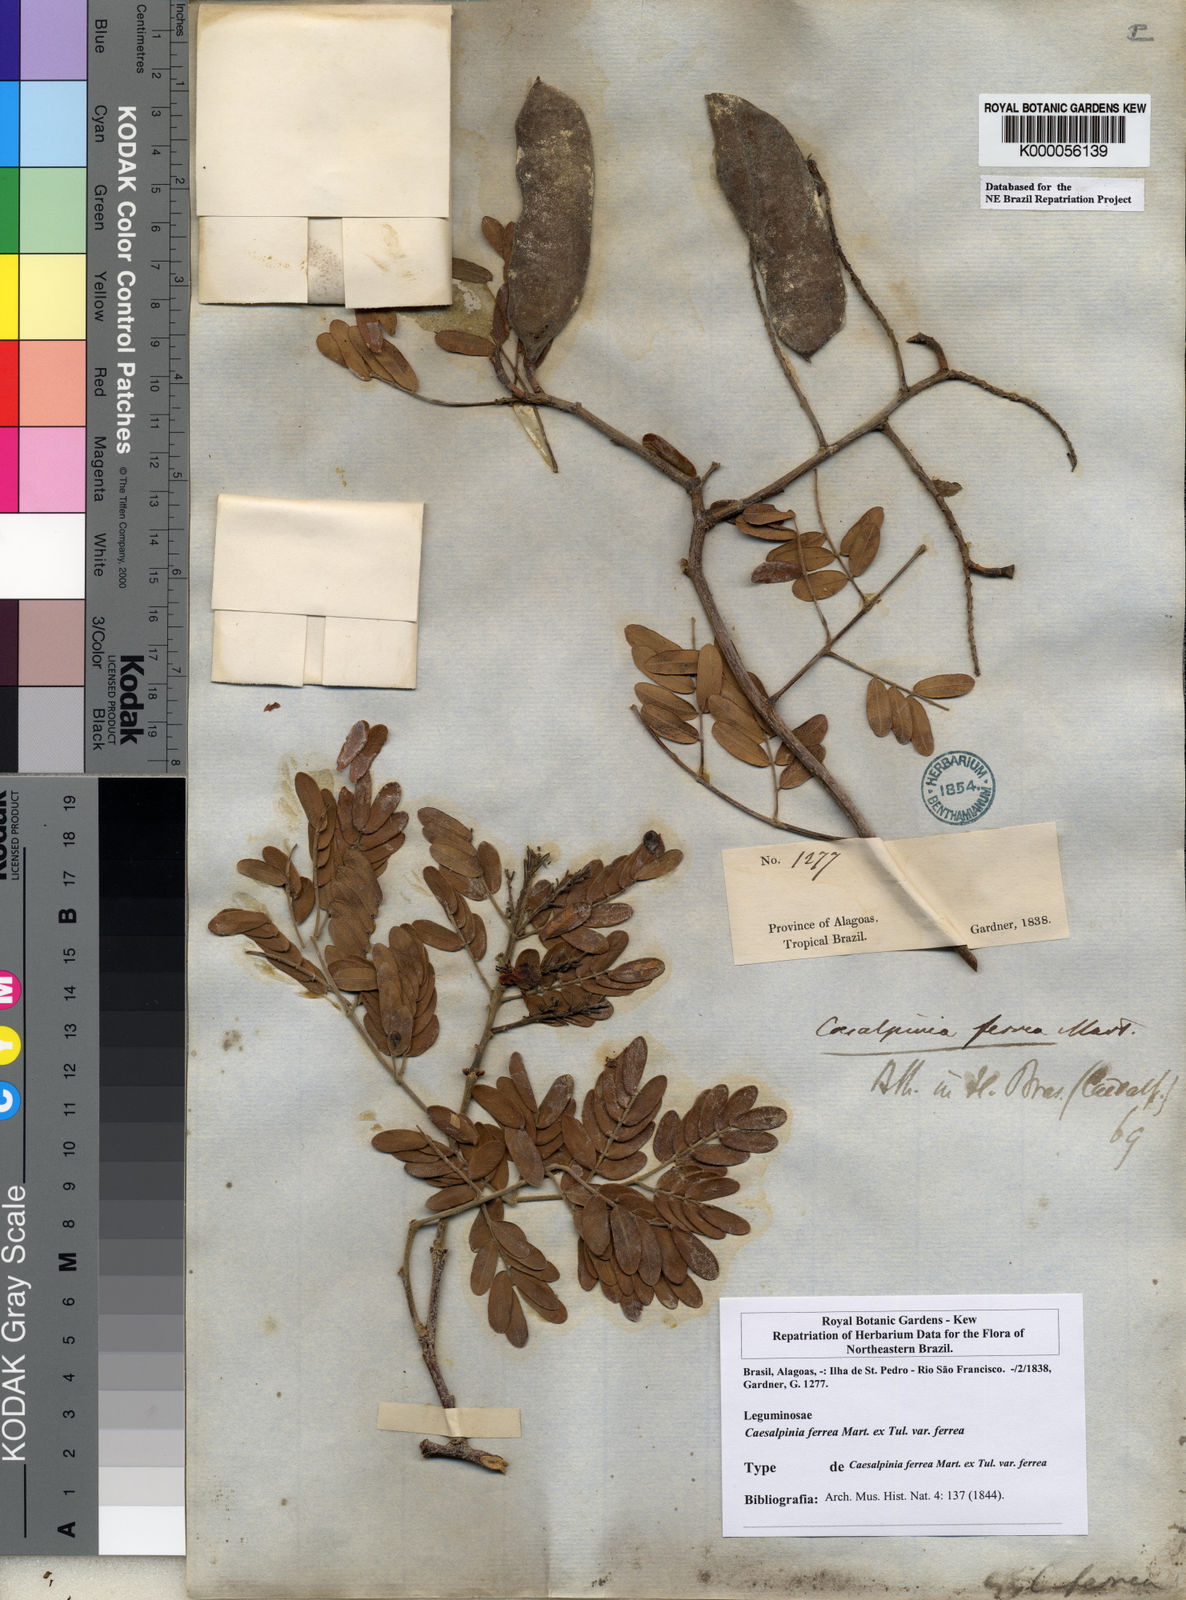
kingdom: Plantae
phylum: Tracheophyta
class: Magnoliopsida
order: Fabales
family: Fabaceae
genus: Libidibia
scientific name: Libidibia ferrea
